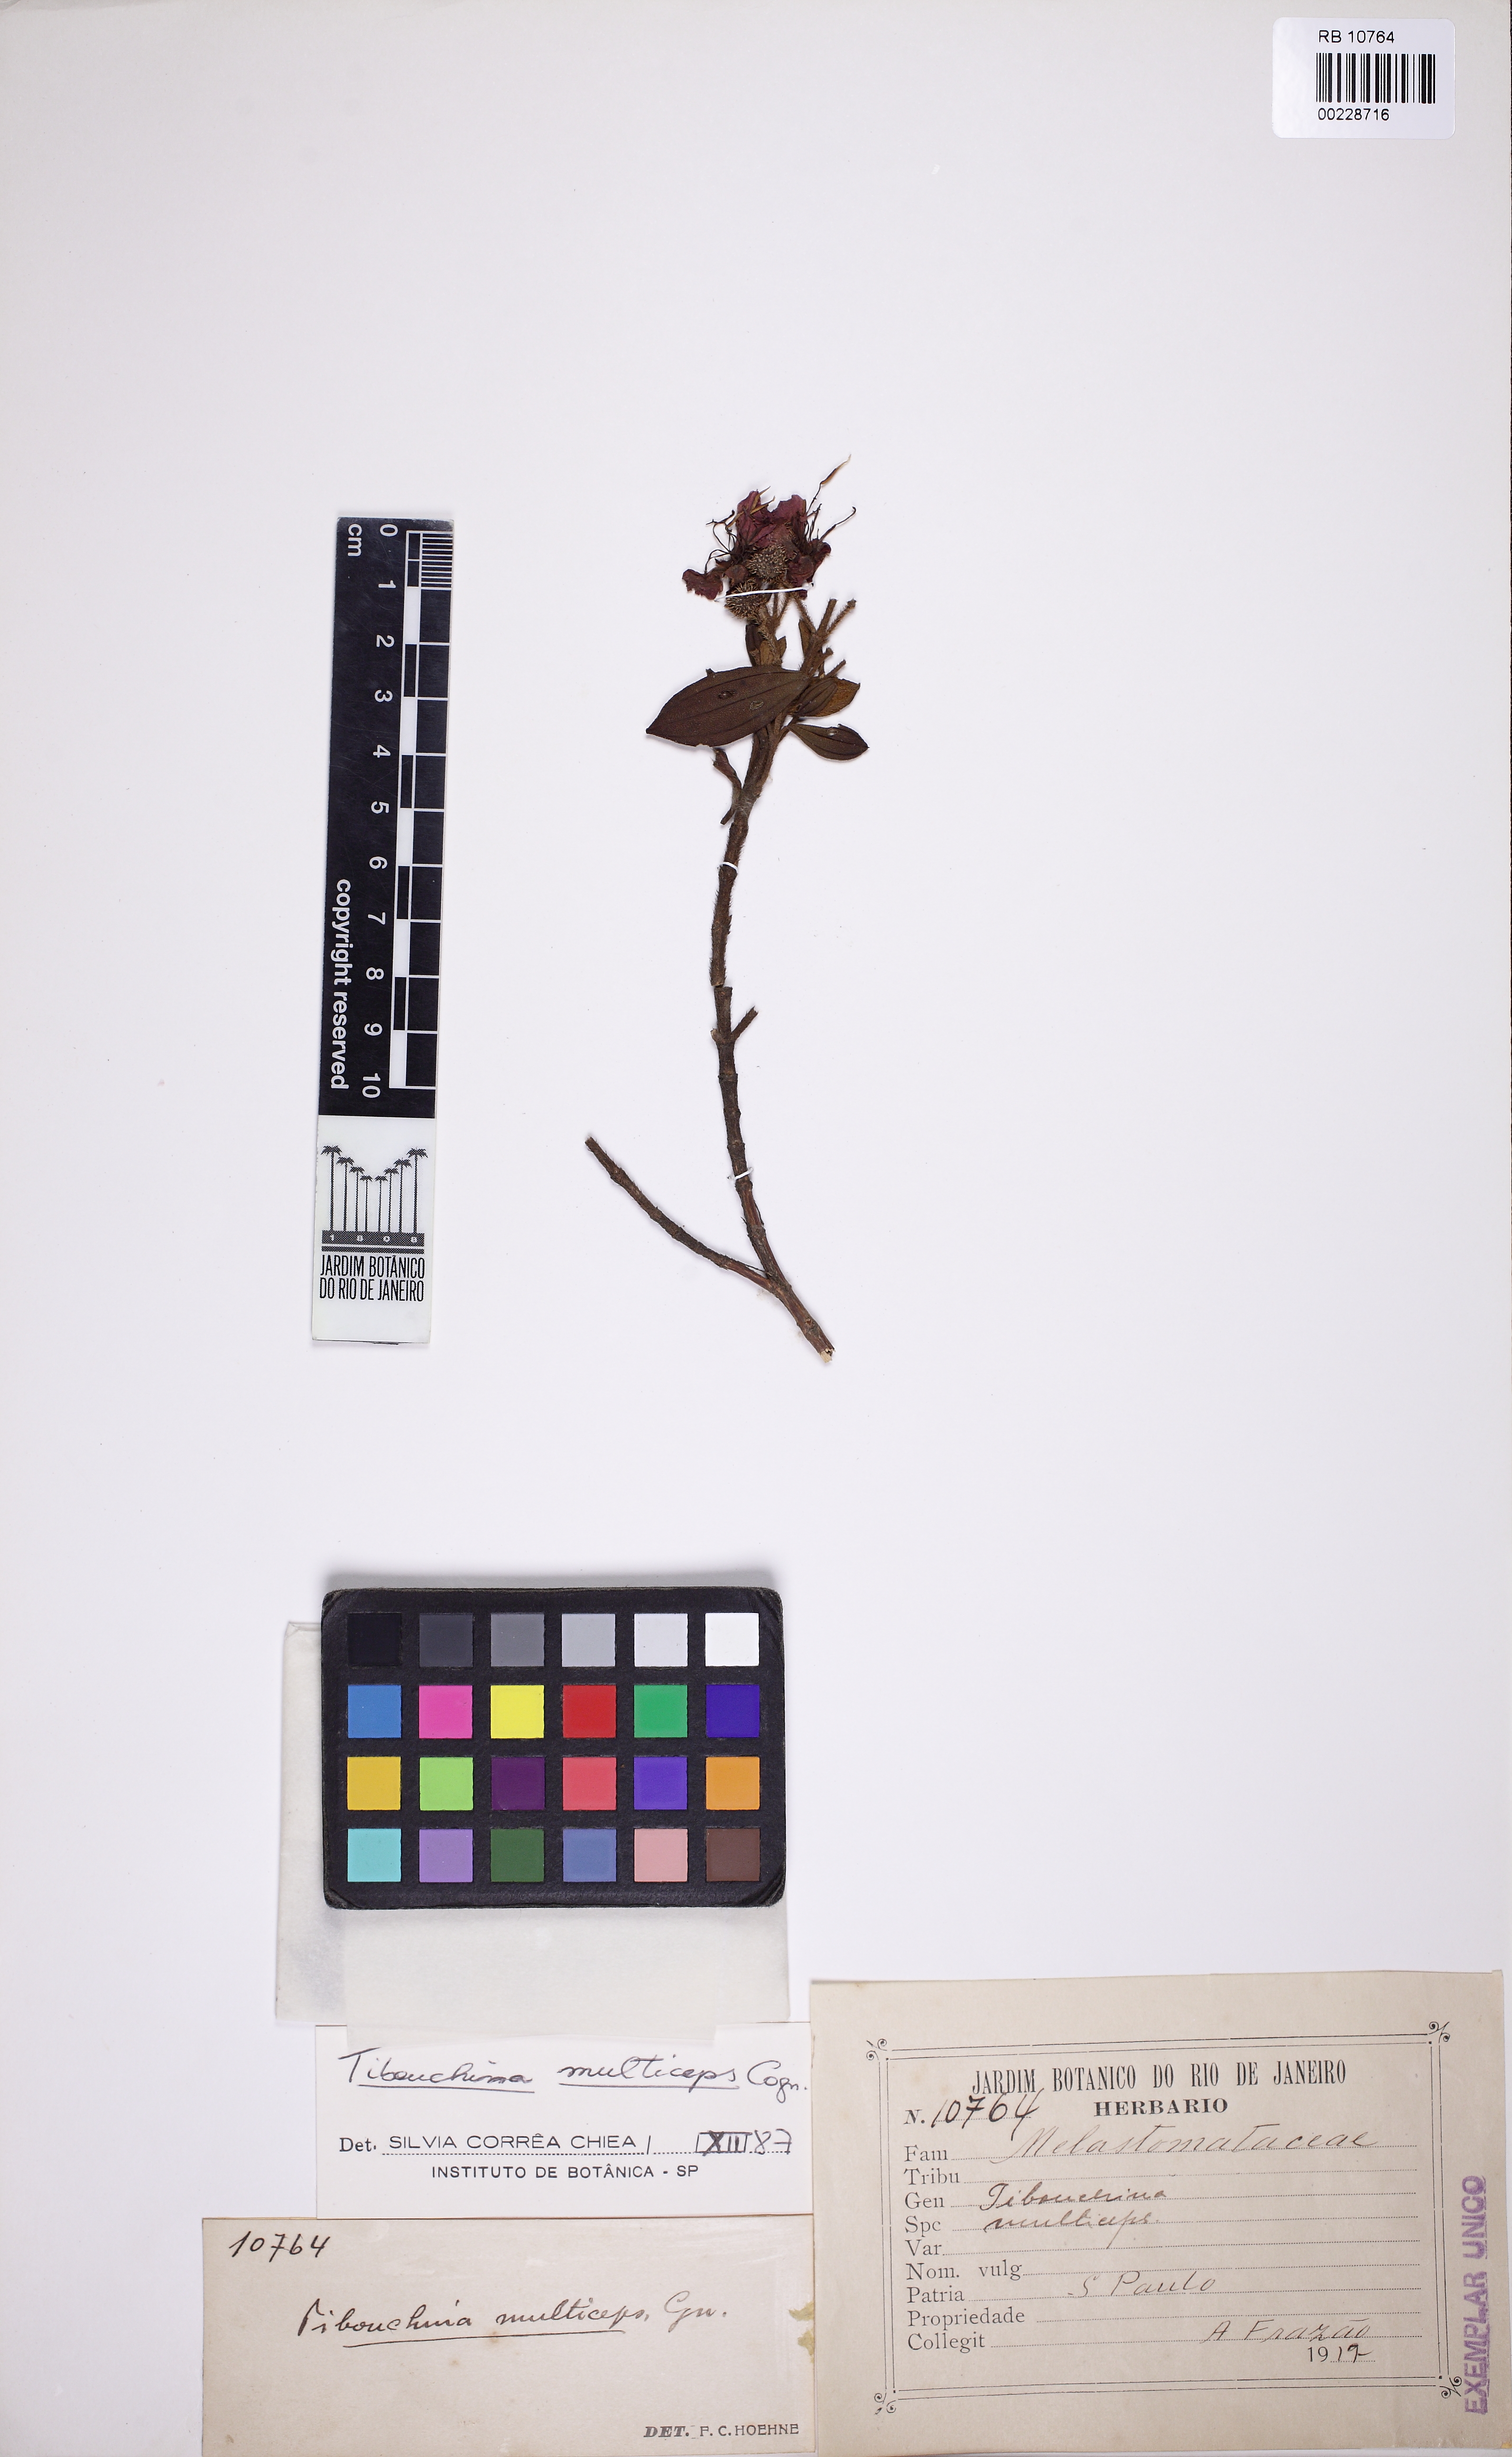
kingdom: Plantae
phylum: Tracheophyta
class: Magnoliopsida
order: Myrtales
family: Melastomataceae
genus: Chaetogastra
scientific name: Chaetogastra mollis
